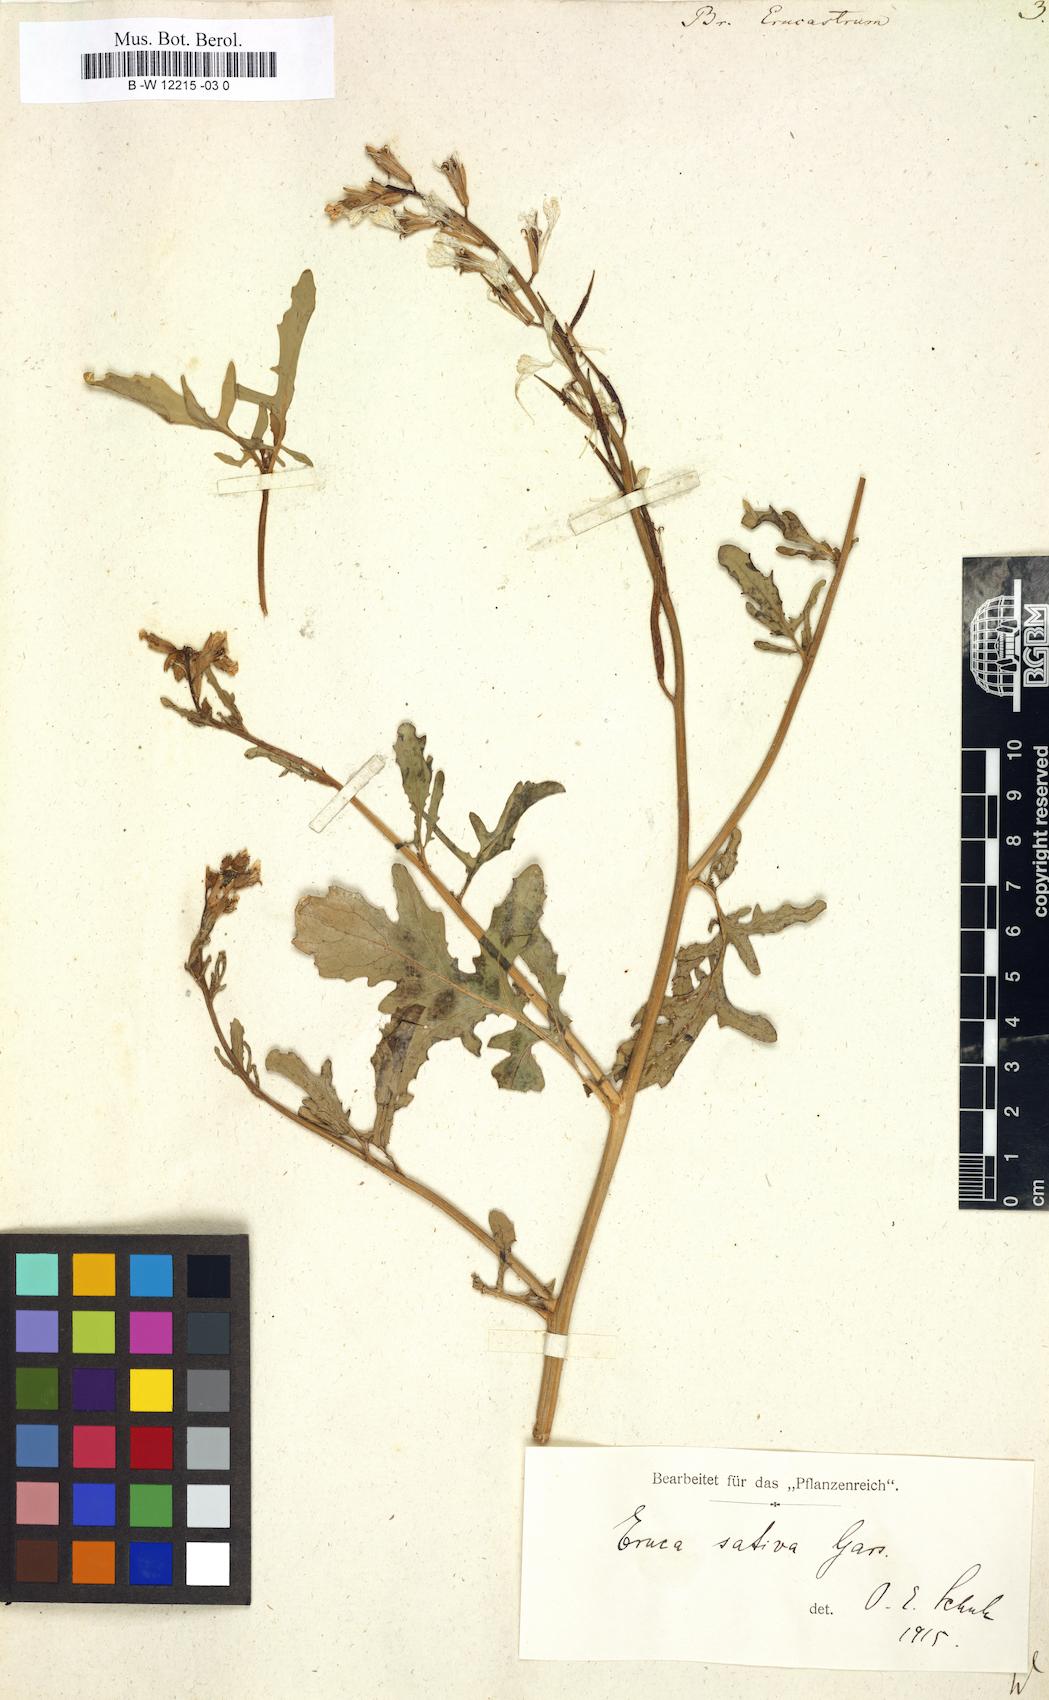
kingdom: Plantae
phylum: Tracheophyta
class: Magnoliopsida
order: Brassicales
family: Brassicaceae
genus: Brassica
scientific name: Brassica erucastrum
